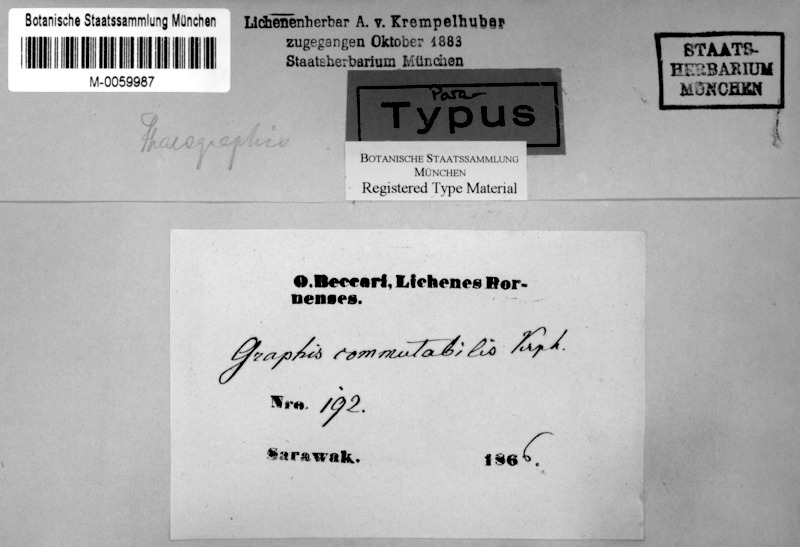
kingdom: Fungi
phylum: Ascomycota
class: Lecanoromycetes
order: Ostropales
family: Graphidaceae
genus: Platygramme
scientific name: Platygramme commutabilis
